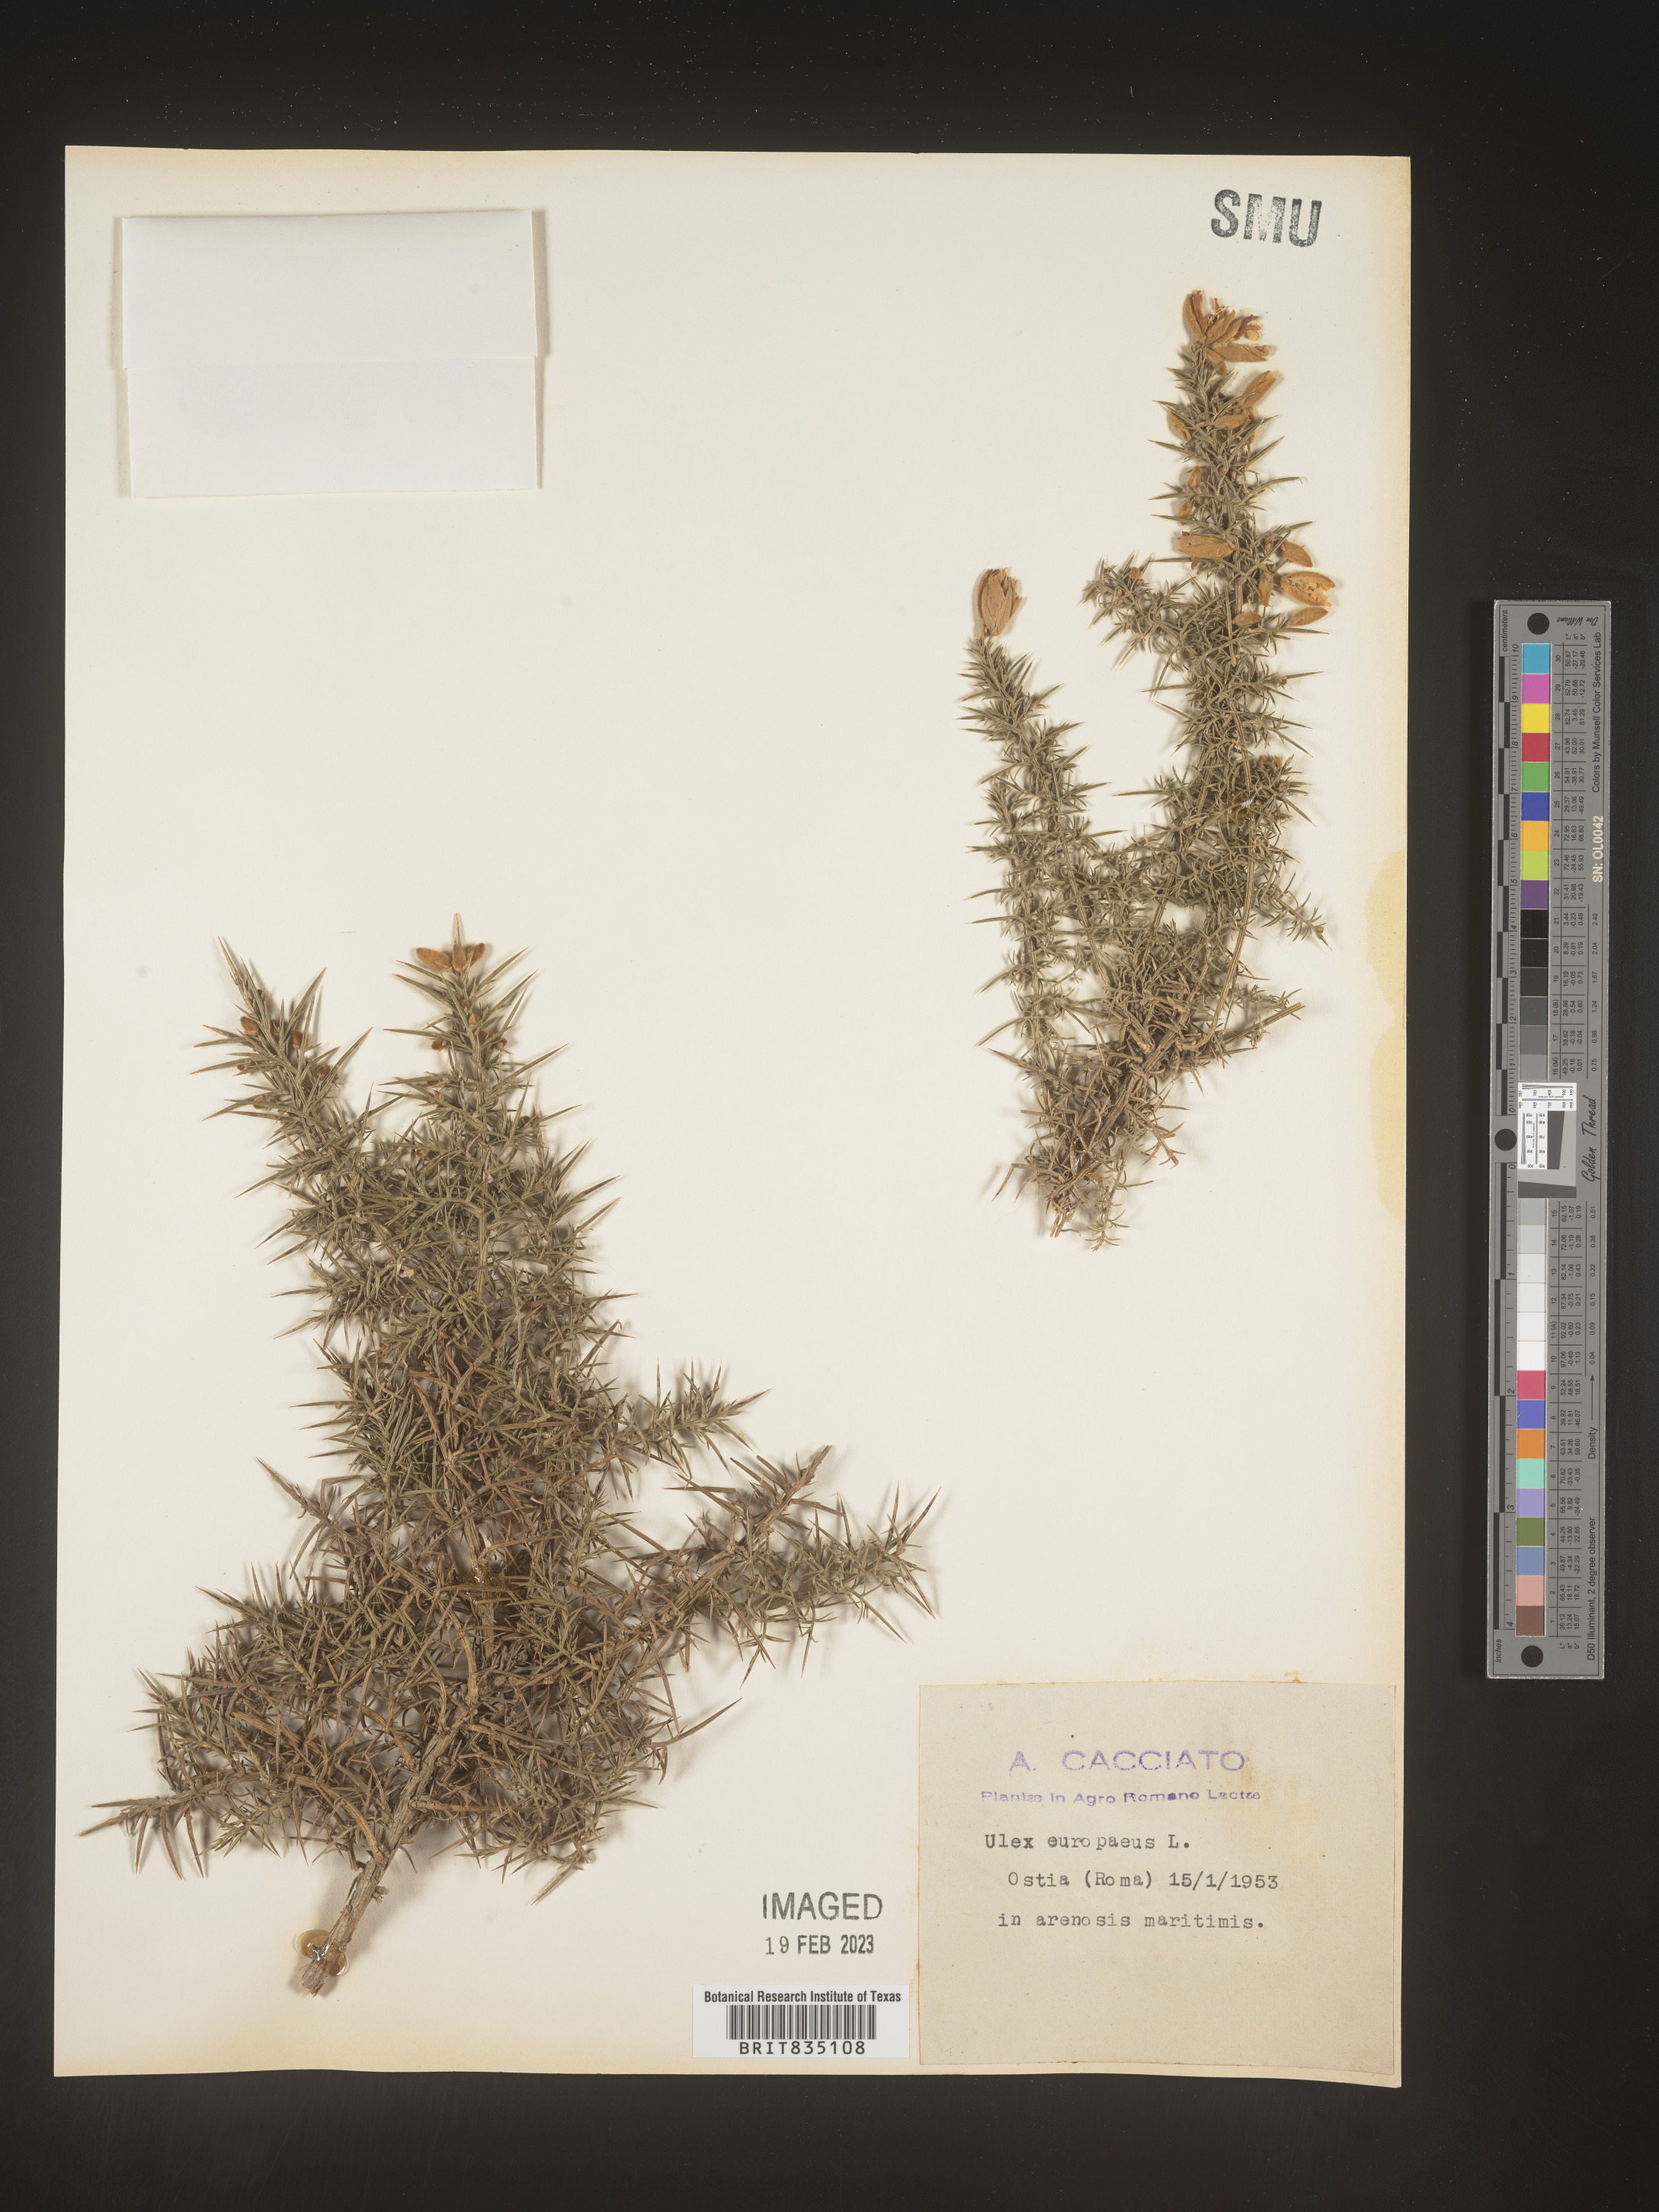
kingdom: Plantae
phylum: Tracheophyta
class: Magnoliopsida
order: Fabales
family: Fabaceae
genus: Ulex
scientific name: Ulex
